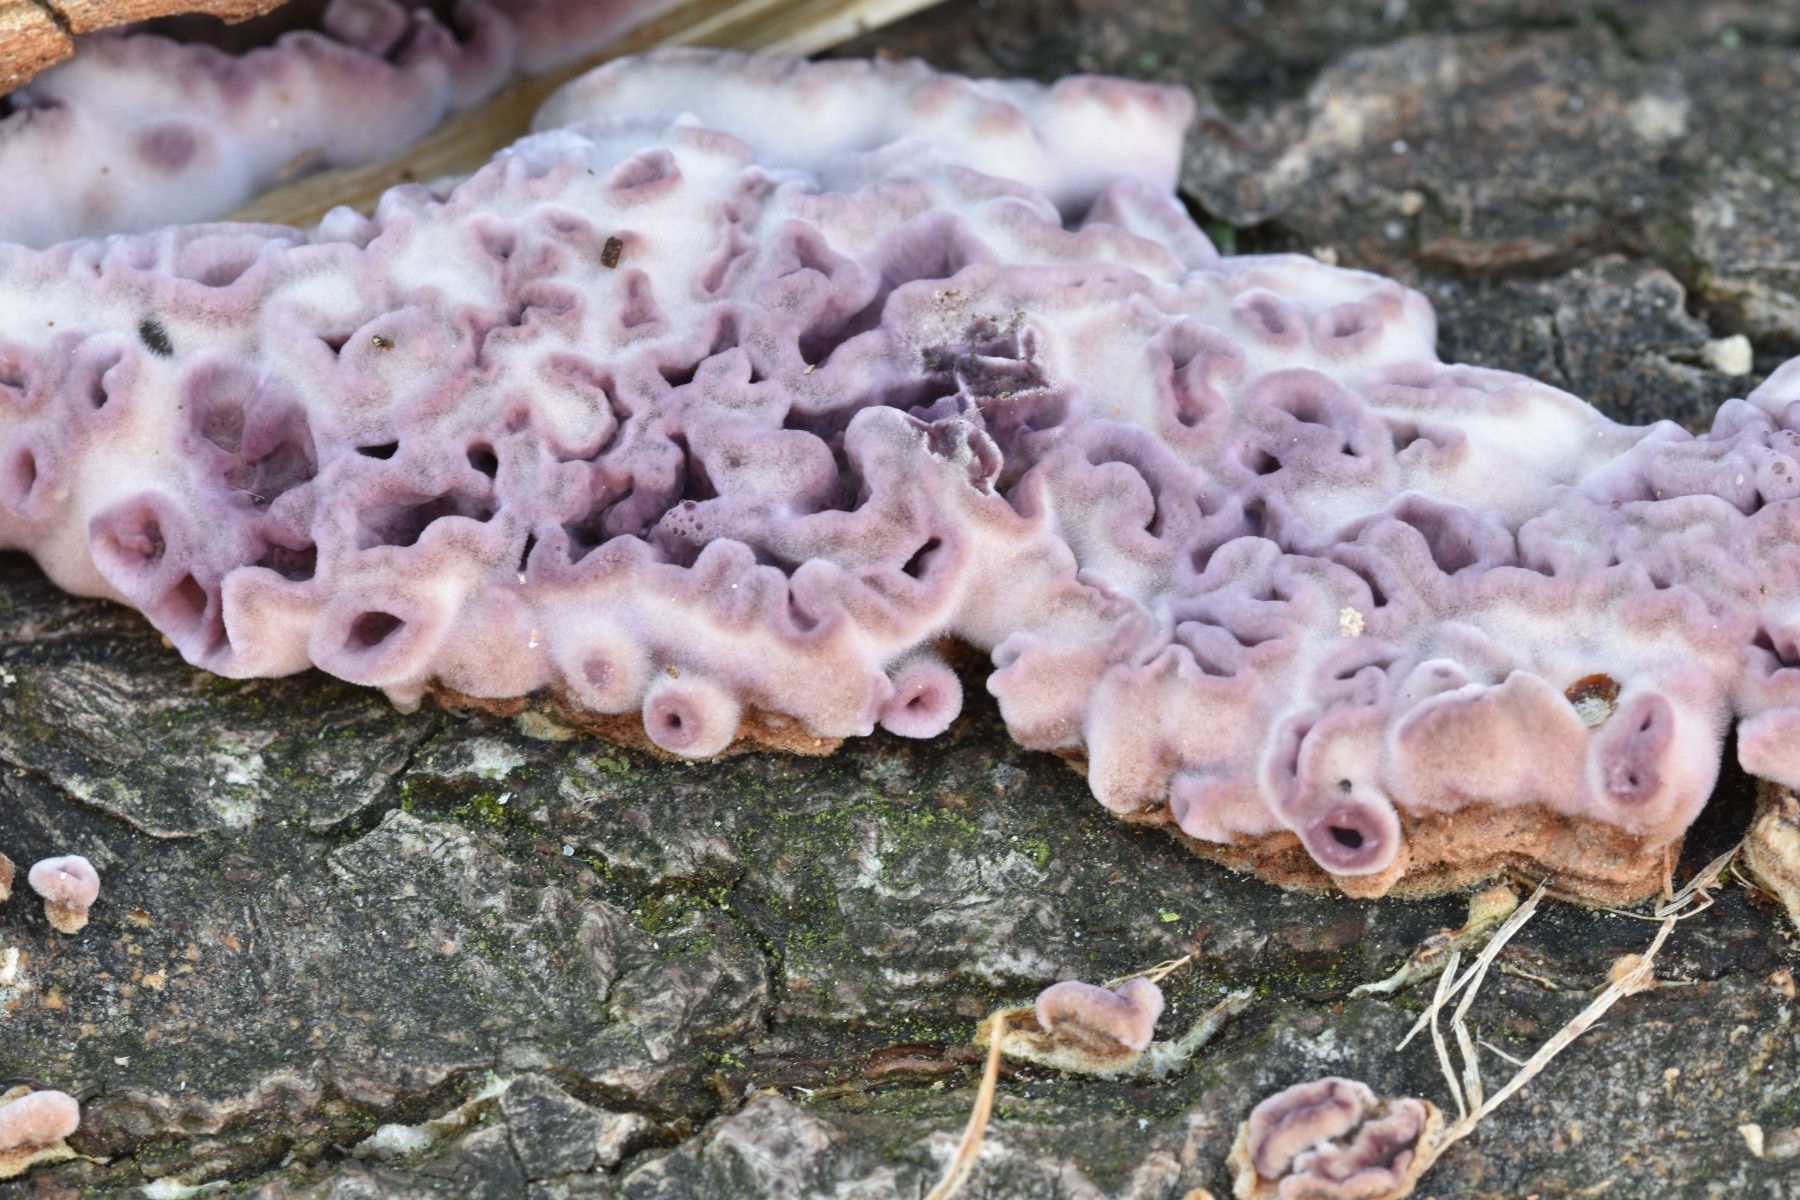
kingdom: Fungi
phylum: Basidiomycota
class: Agaricomycetes
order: Agaricales
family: Cyphellaceae
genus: Chondrostereum
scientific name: Chondrostereum purpureum
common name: purpurlædersvamp
